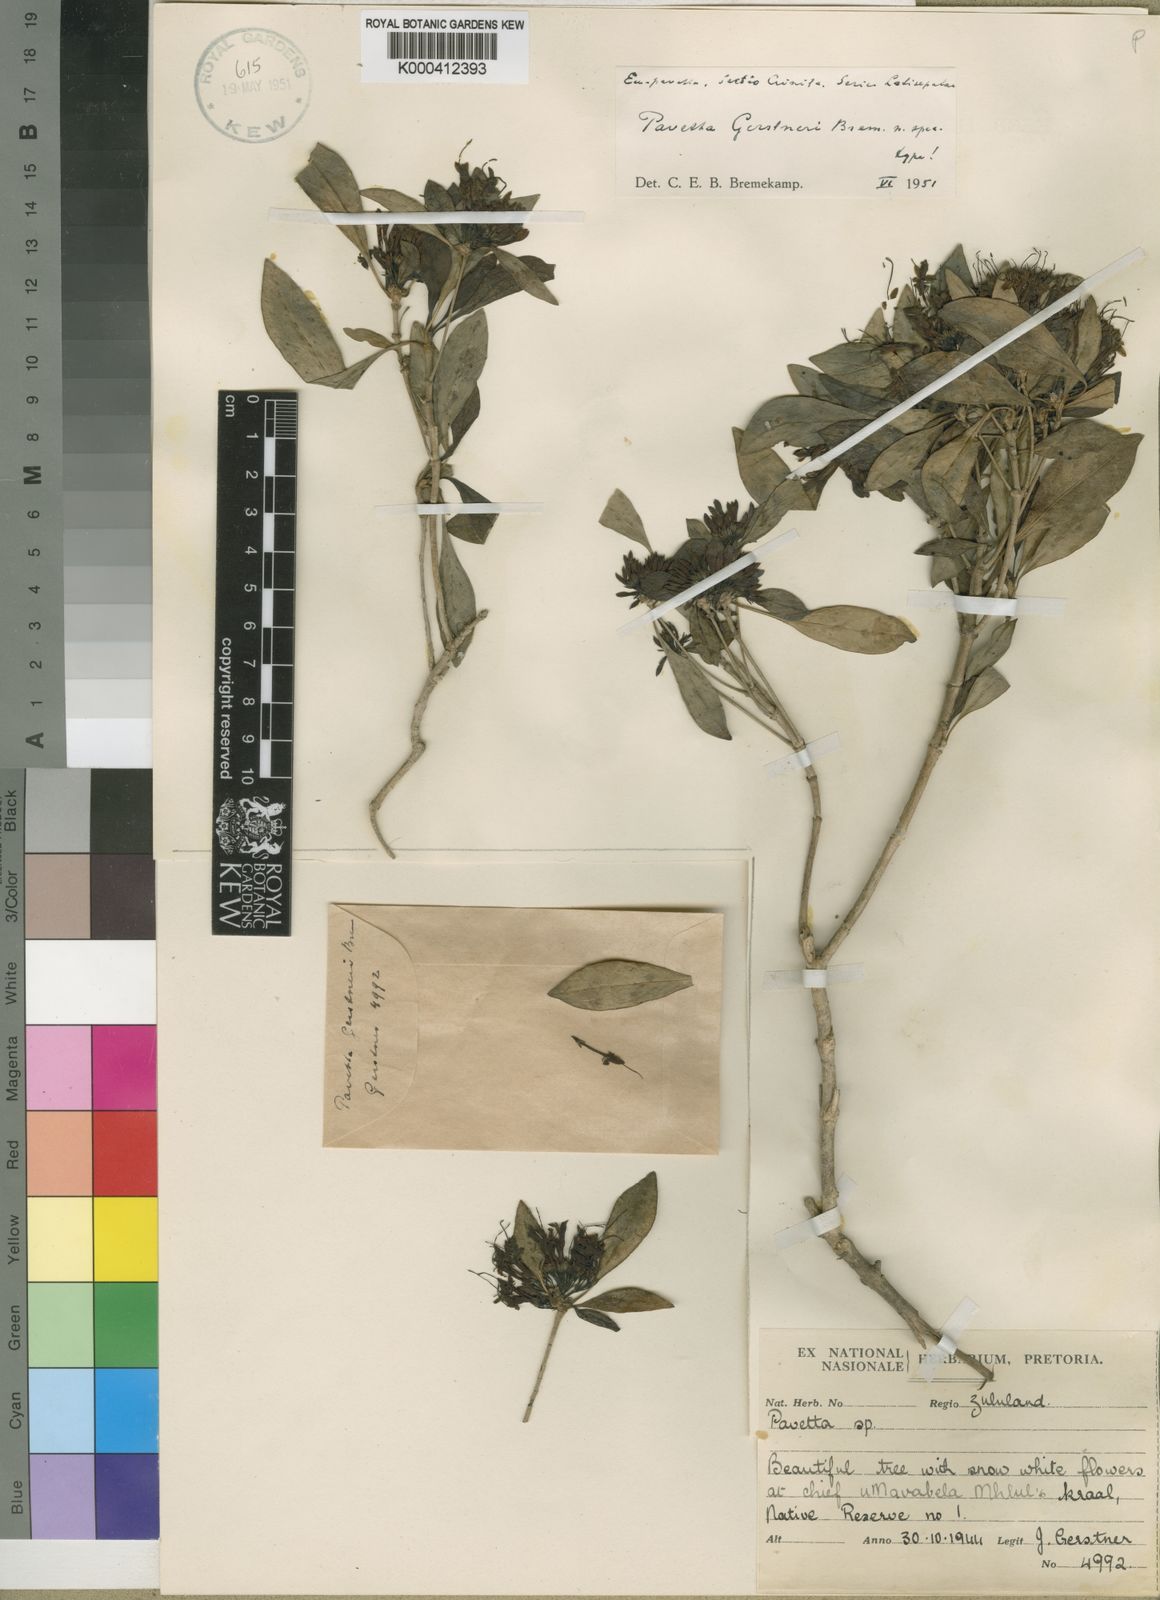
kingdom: Plantae
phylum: Tracheophyta
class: Magnoliopsida
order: Gentianales
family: Rubiaceae
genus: Pavetta
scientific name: Pavetta gerstneri
